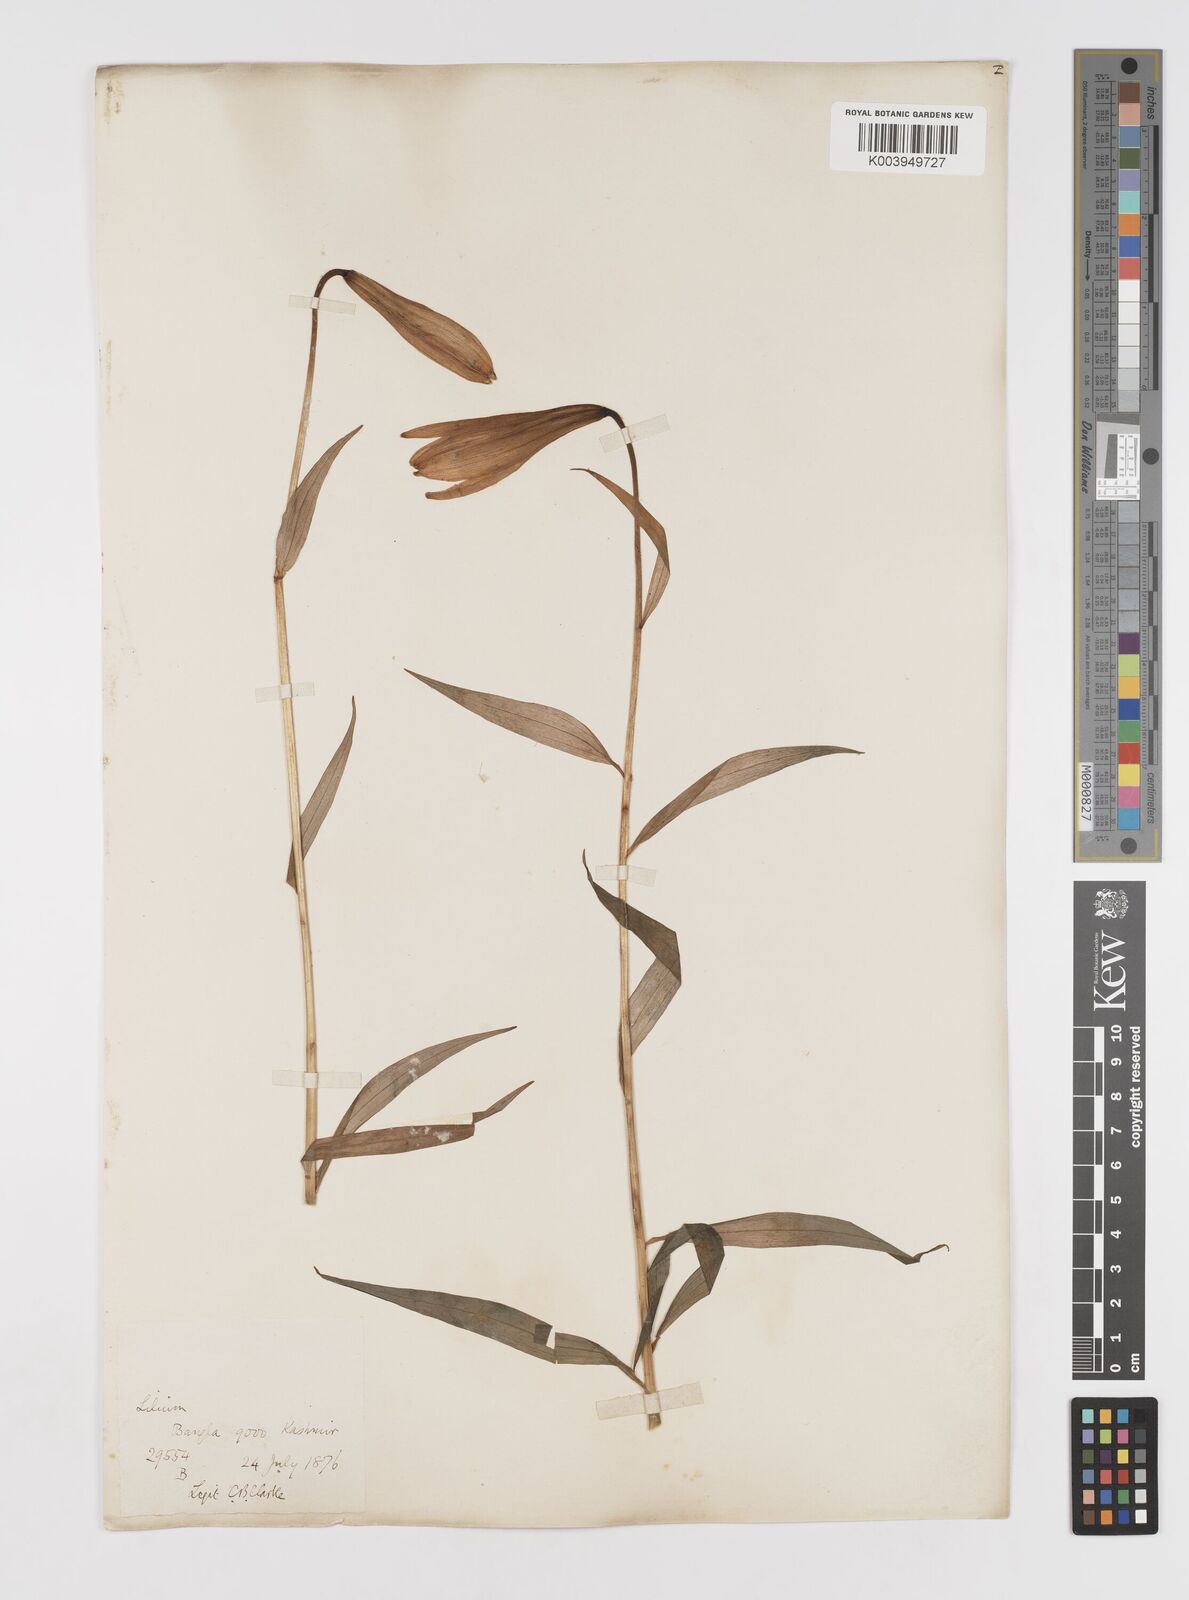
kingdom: Plantae
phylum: Tracheophyta
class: Liliopsida
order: Liliales
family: Liliaceae
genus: Lilium
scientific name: Lilium polyphyllum
